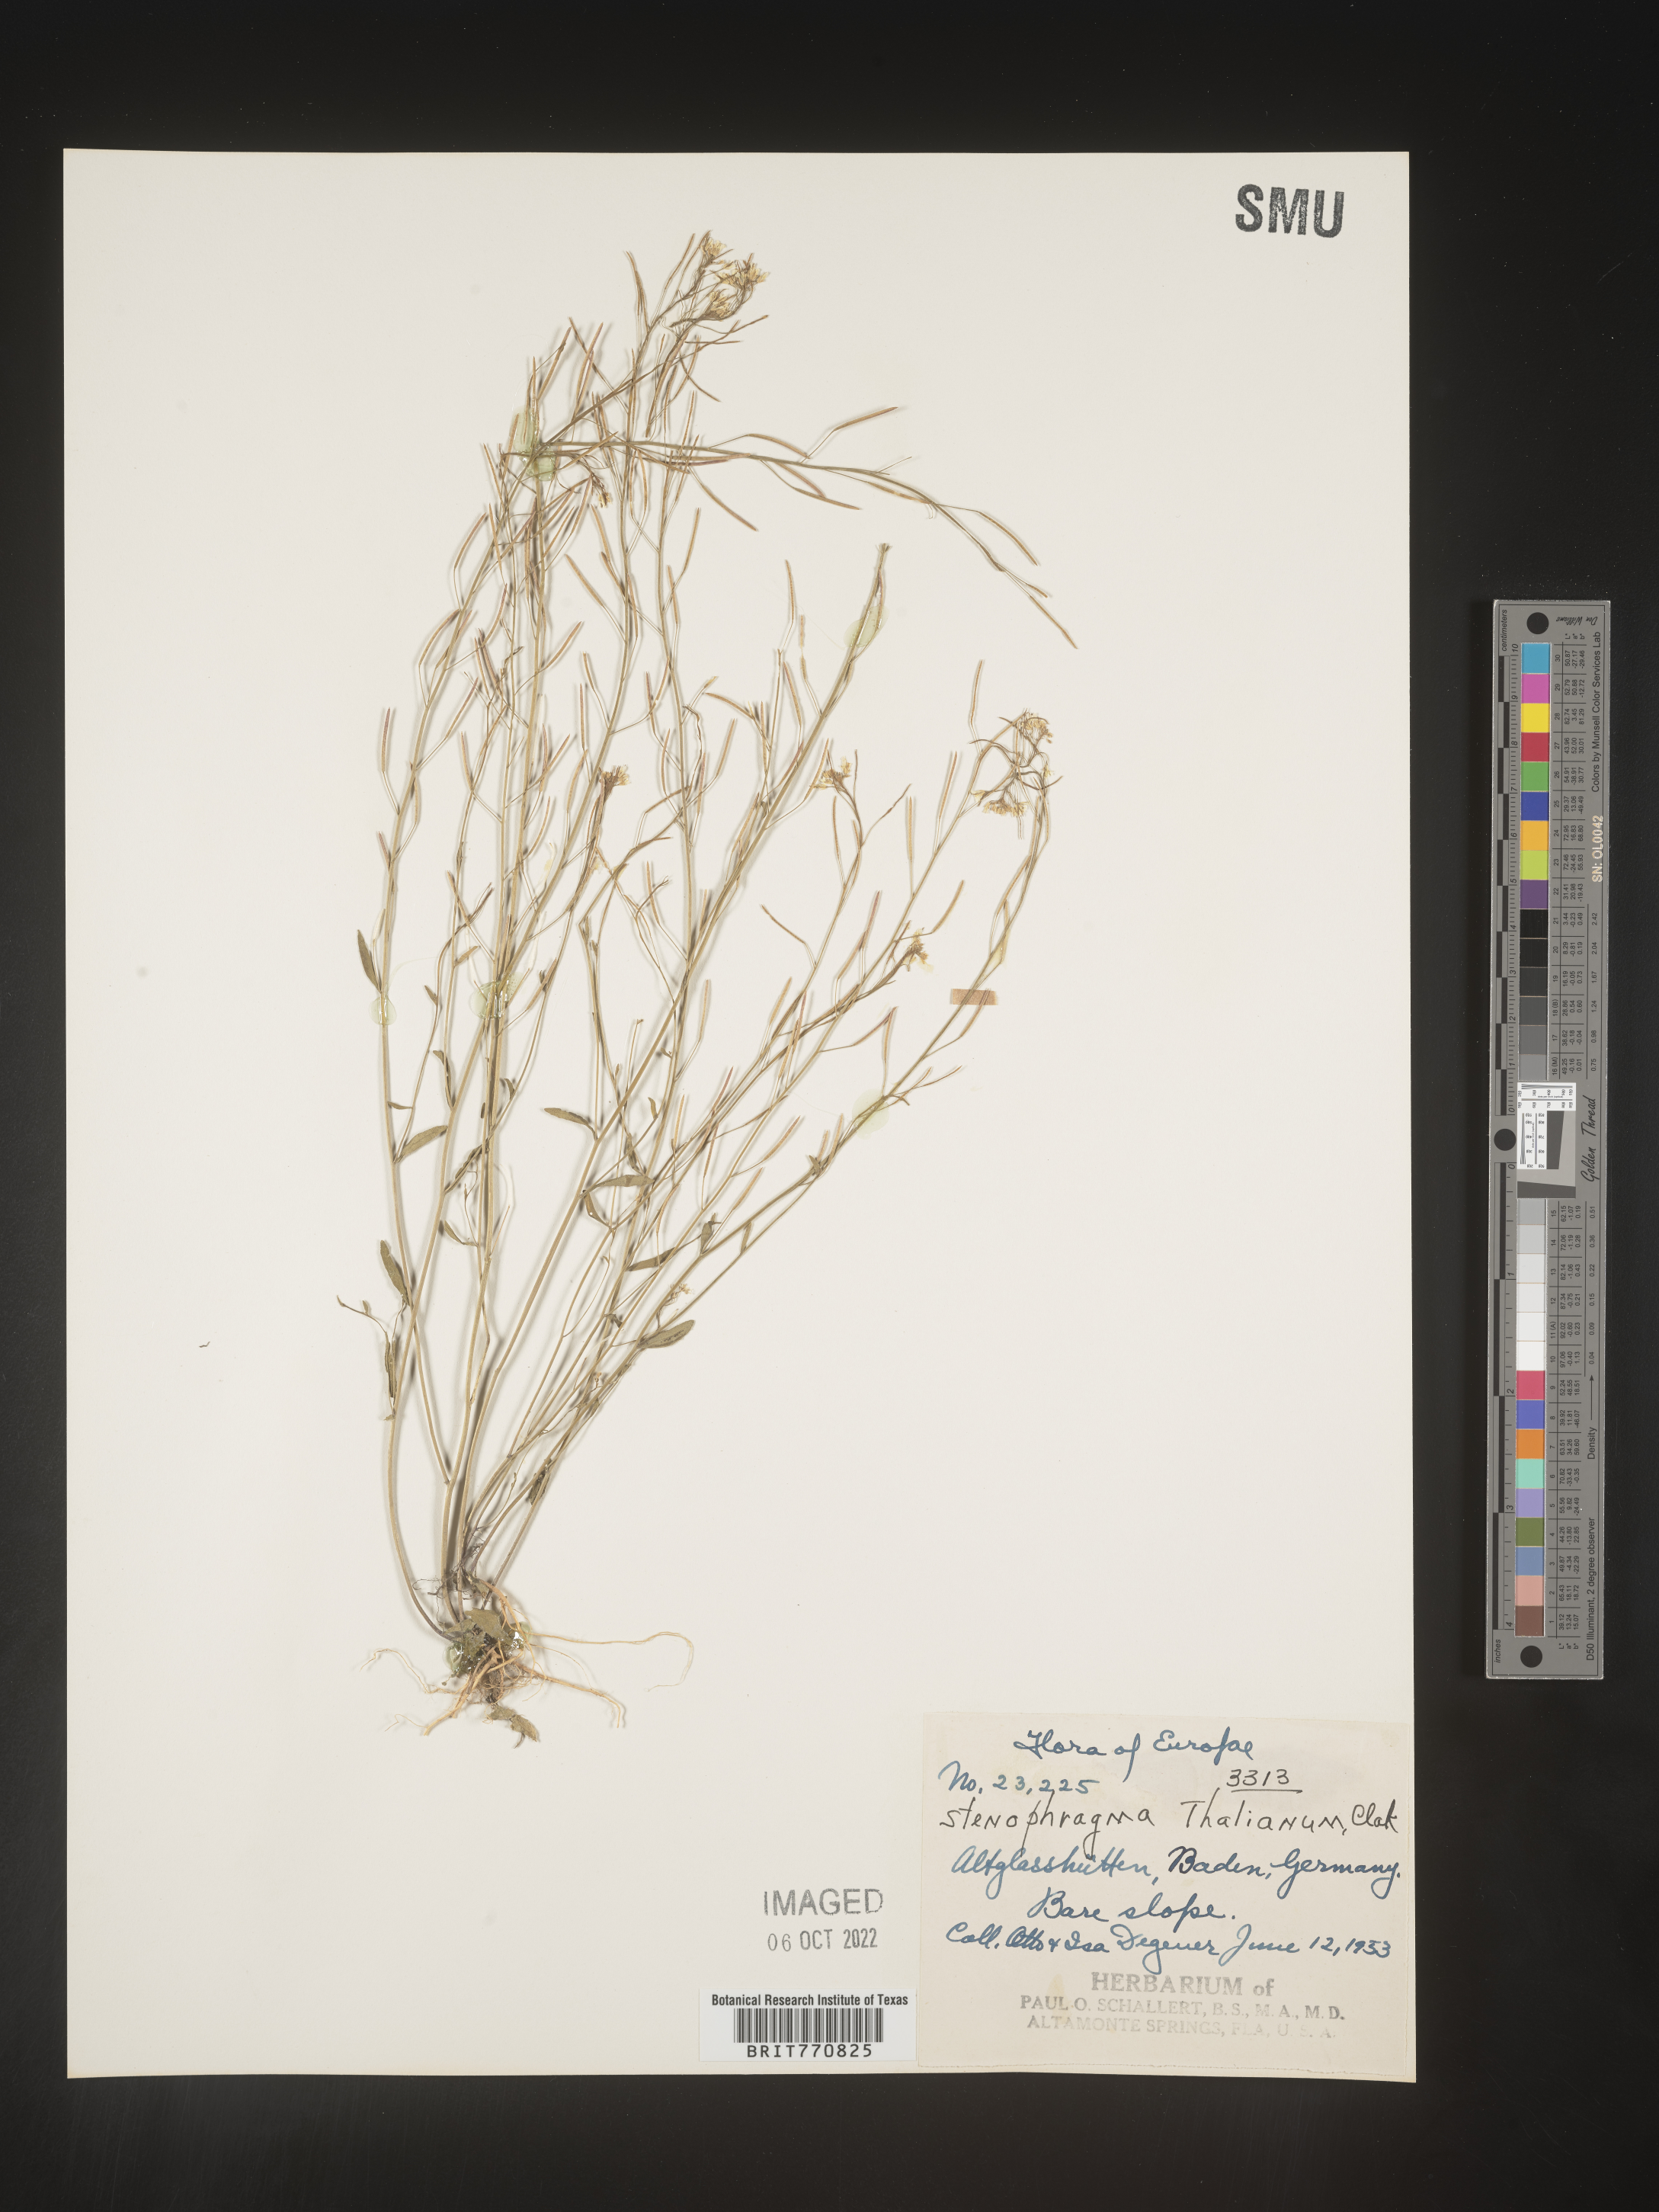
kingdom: Plantae
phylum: Tracheophyta
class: Magnoliopsida
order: Brassicales
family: Brassicaceae
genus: Arabidopsis
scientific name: Arabidopsis
